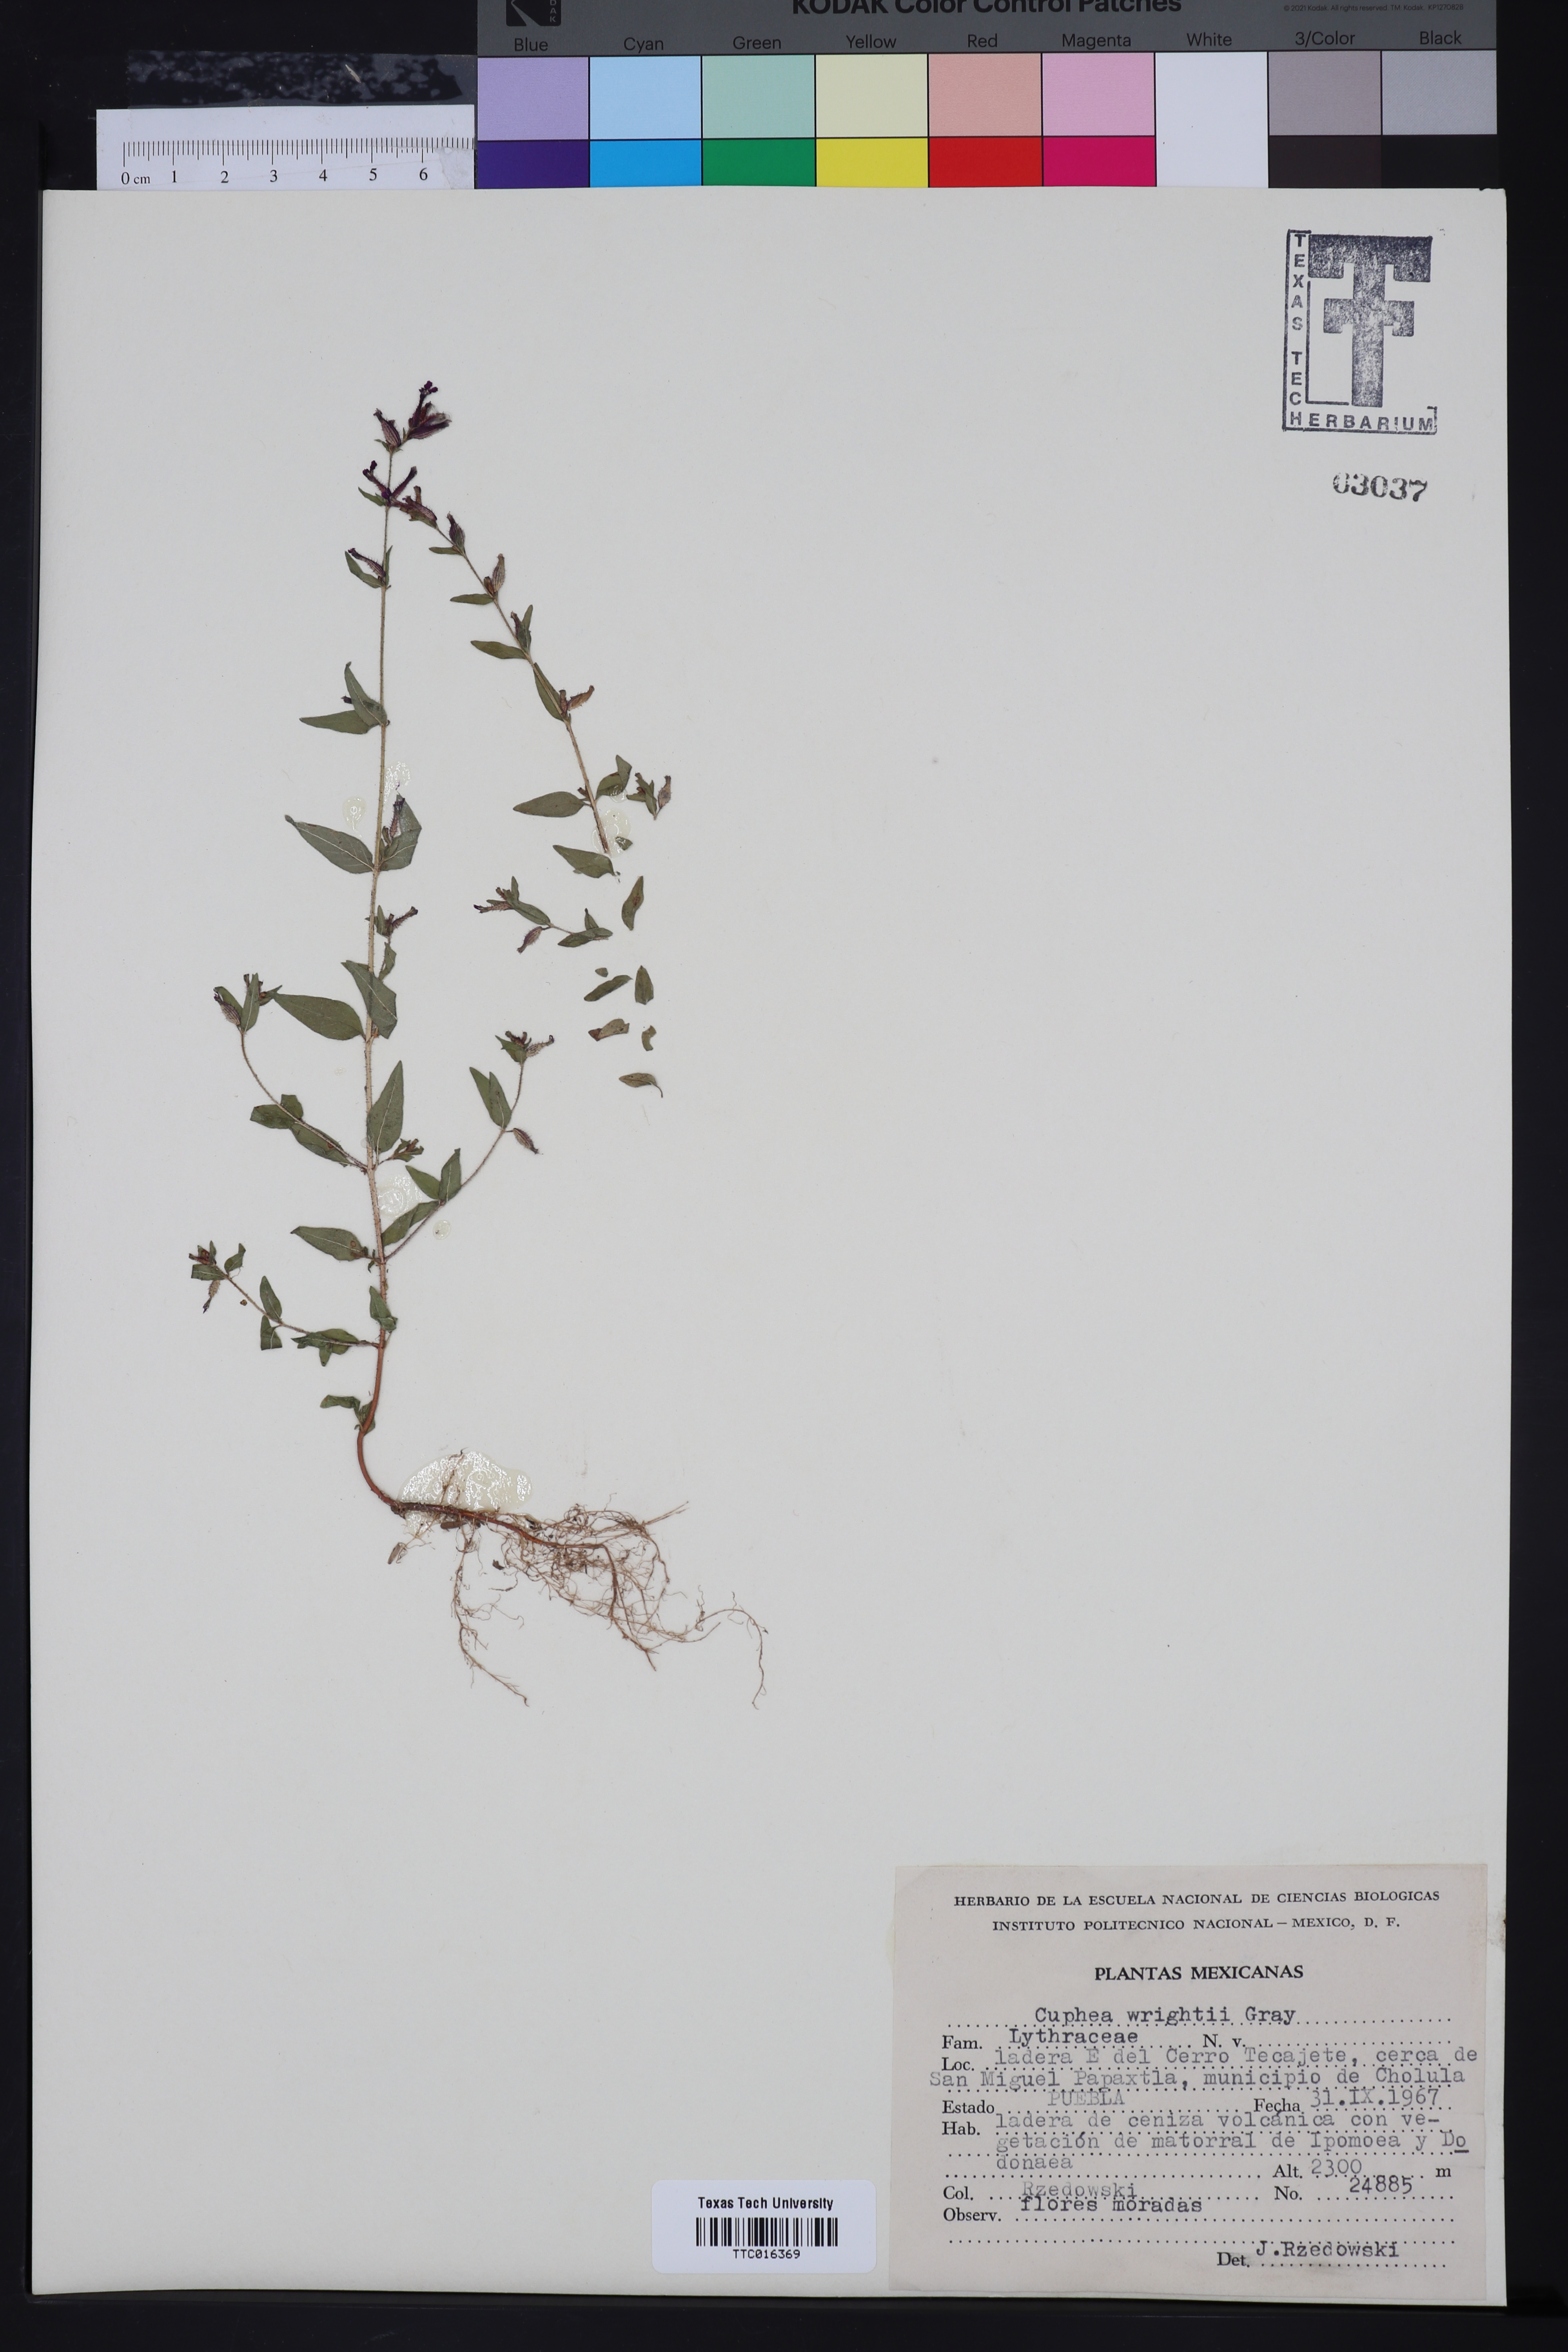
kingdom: Plantae
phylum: Tracheophyta
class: Magnoliopsida
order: Myrtales
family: Lythraceae
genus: Cuphea
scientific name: Cuphea wrightii
